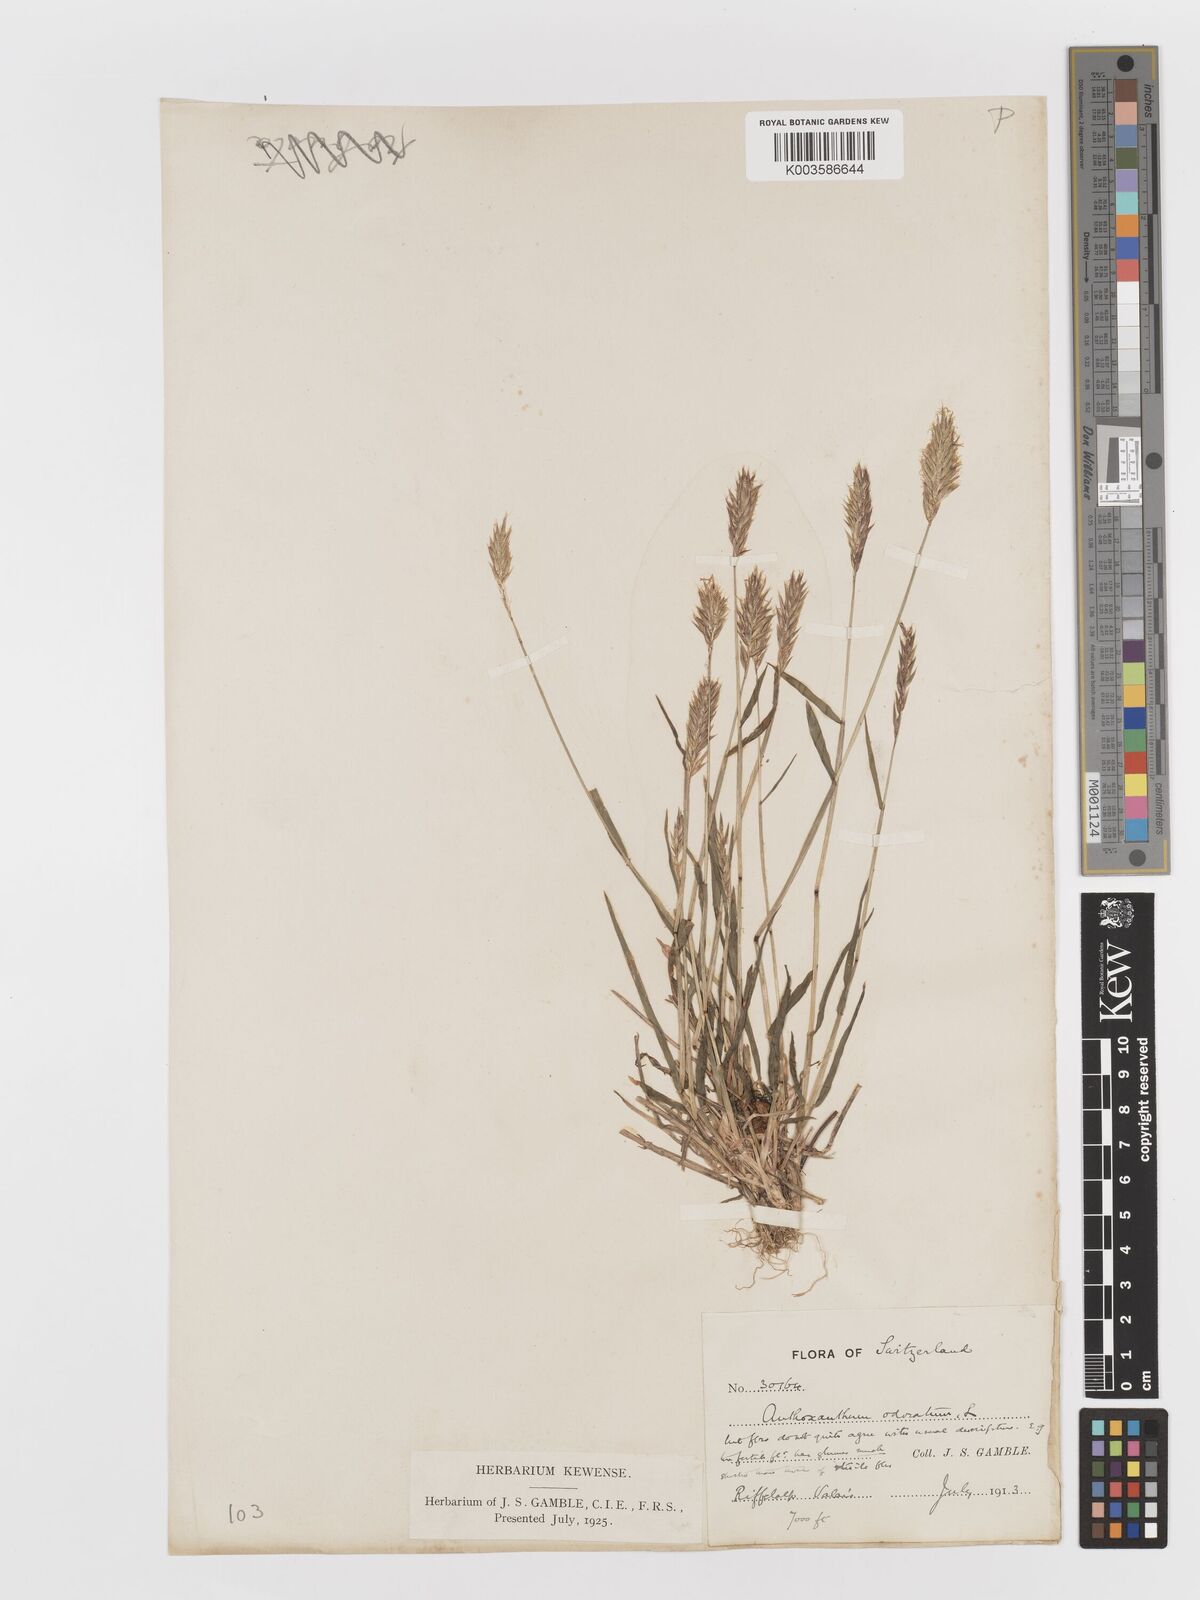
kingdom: Plantae
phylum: Tracheophyta
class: Liliopsida
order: Poales
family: Poaceae
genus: Anthoxanthum
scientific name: Anthoxanthum odoratum
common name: Sweet vernalgrass
